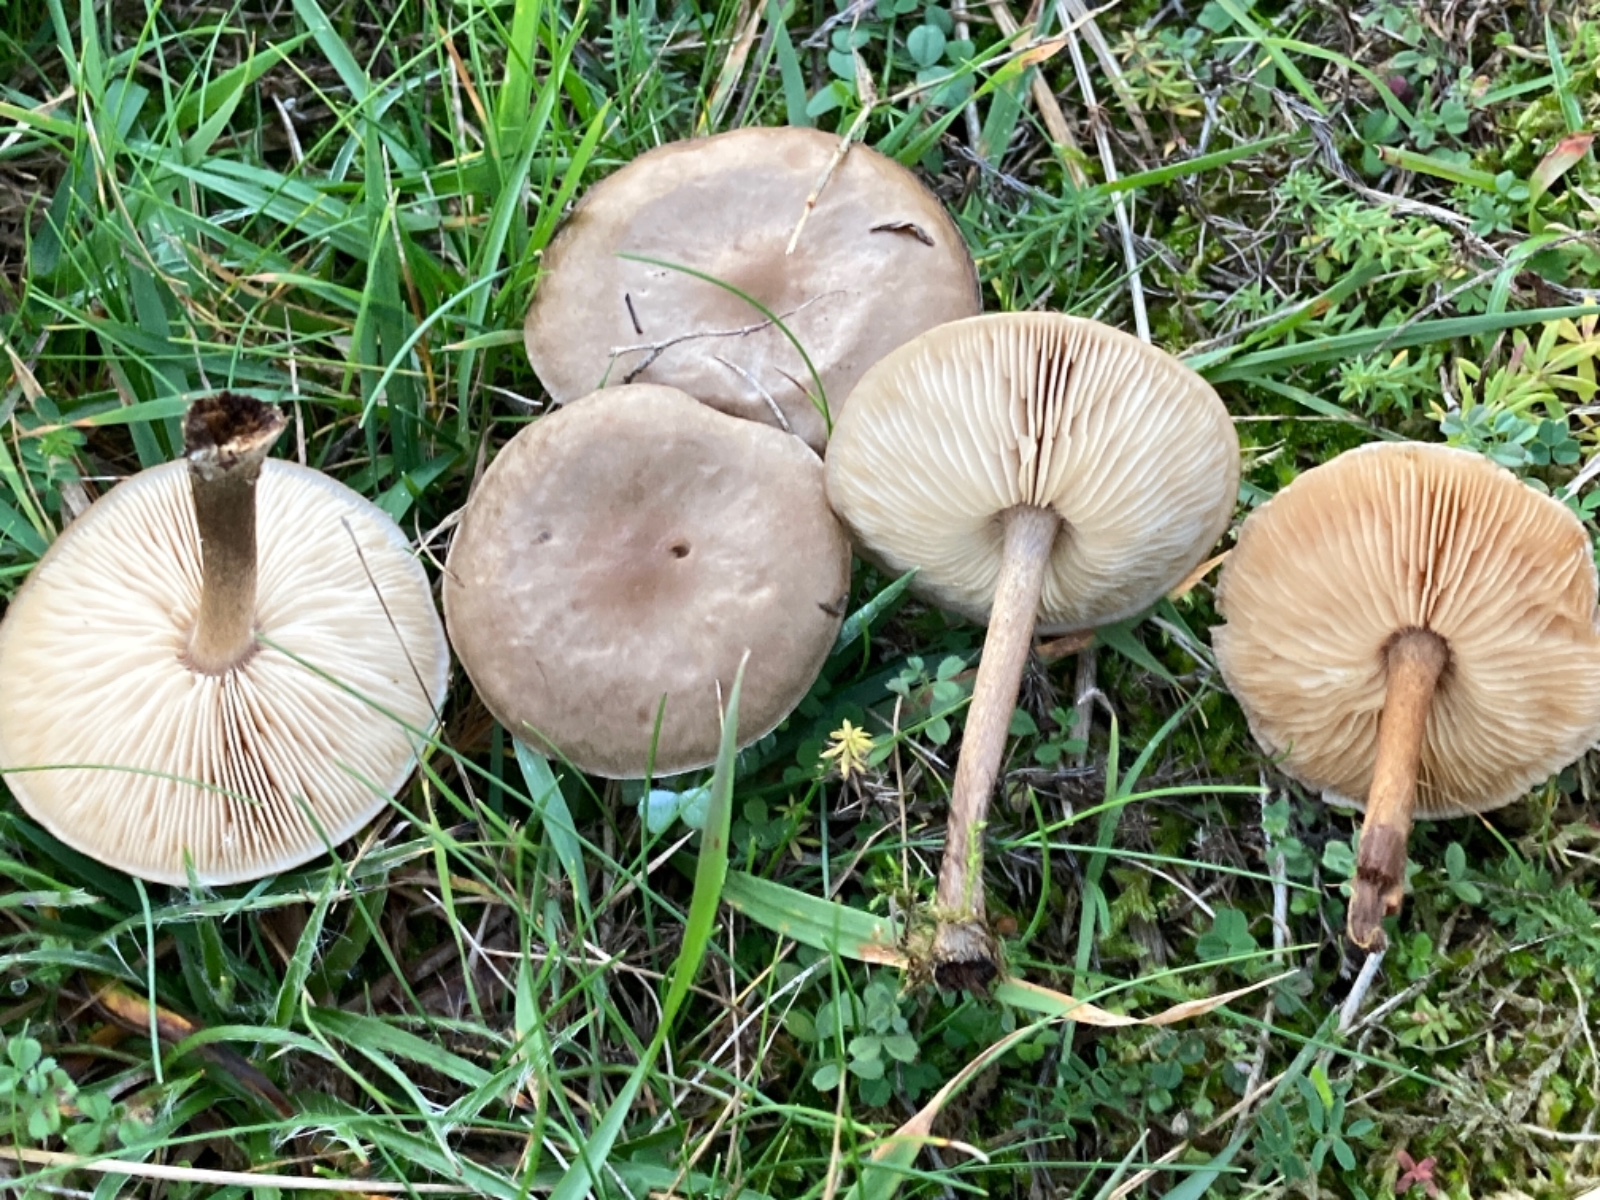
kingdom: Fungi
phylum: Basidiomycota
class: Agaricomycetes
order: Agaricales
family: Tricholomataceae
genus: Melanoleuca
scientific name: Melanoleuca
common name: munkehat
